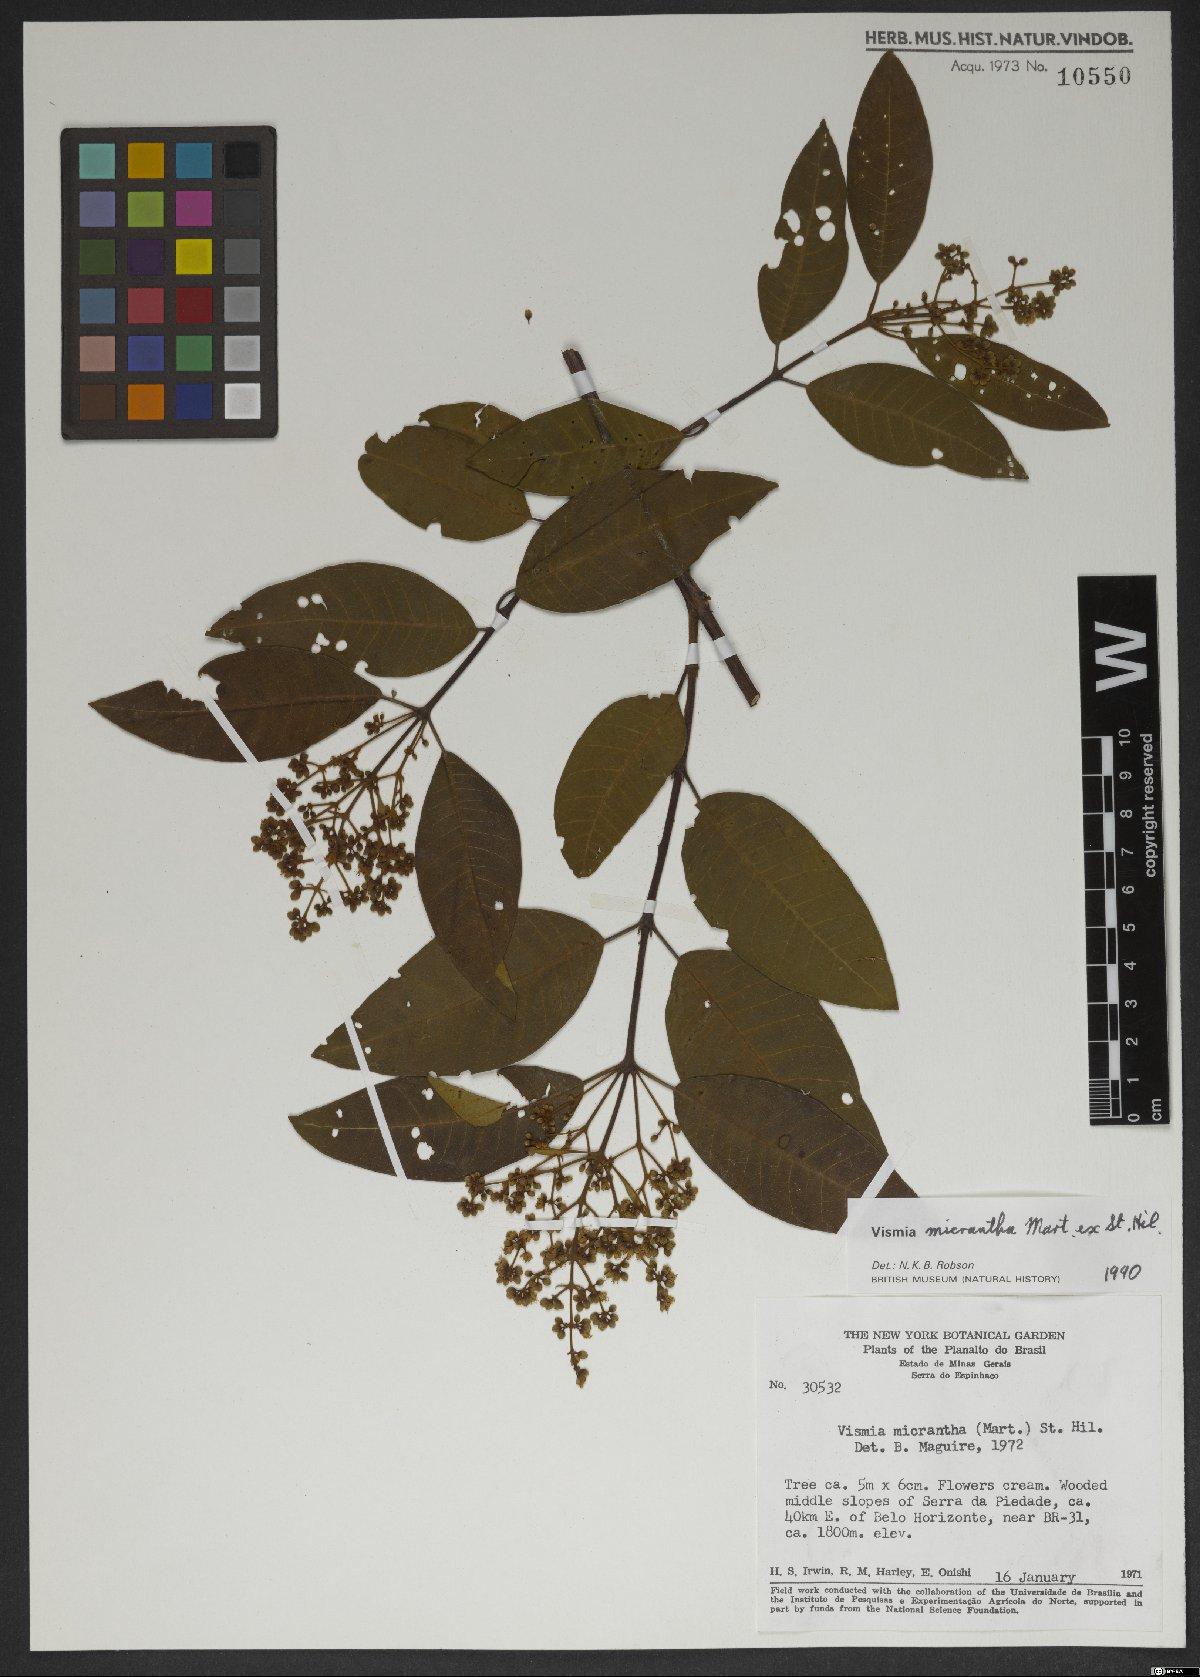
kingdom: Plantae
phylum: Tracheophyta
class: Magnoliopsida
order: Malpighiales
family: Hypericaceae
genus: Vismia
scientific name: Vismia micrantha
